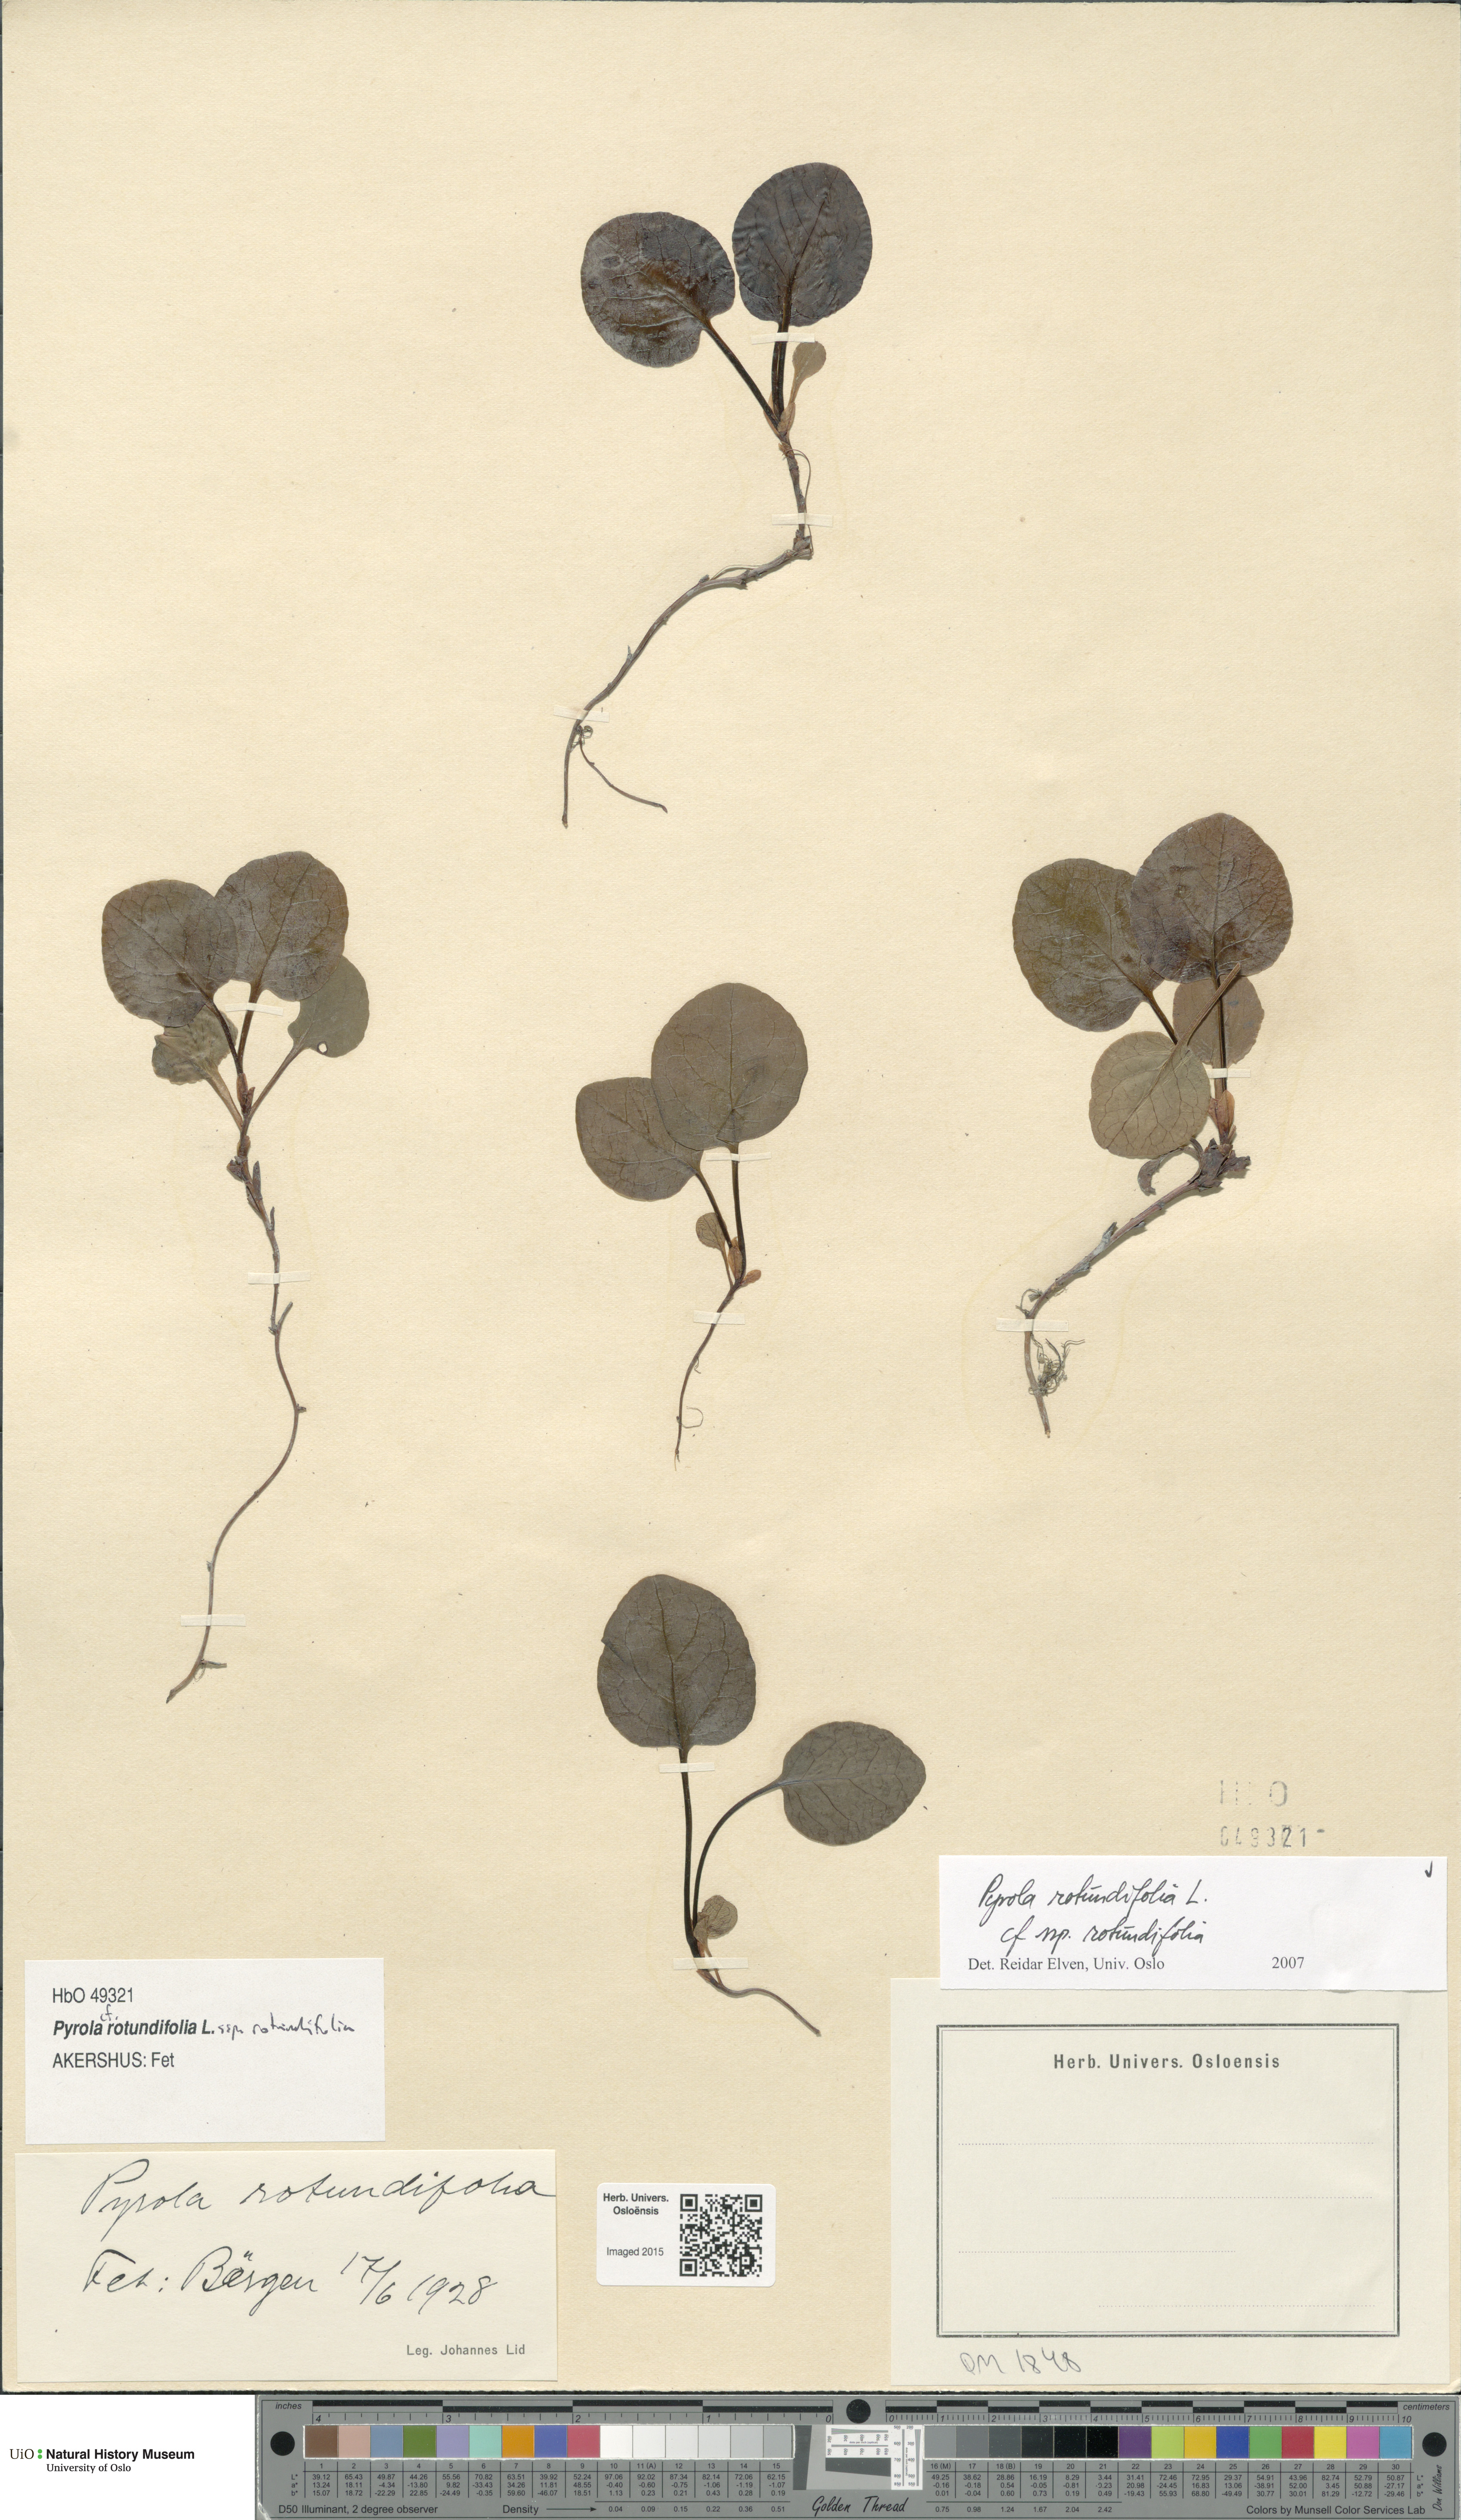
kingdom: Plantae
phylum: Tracheophyta
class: Magnoliopsida
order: Ericales
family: Ericaceae
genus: Pyrola
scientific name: Pyrola rotundifolia
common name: Round-leaved wintergreen
